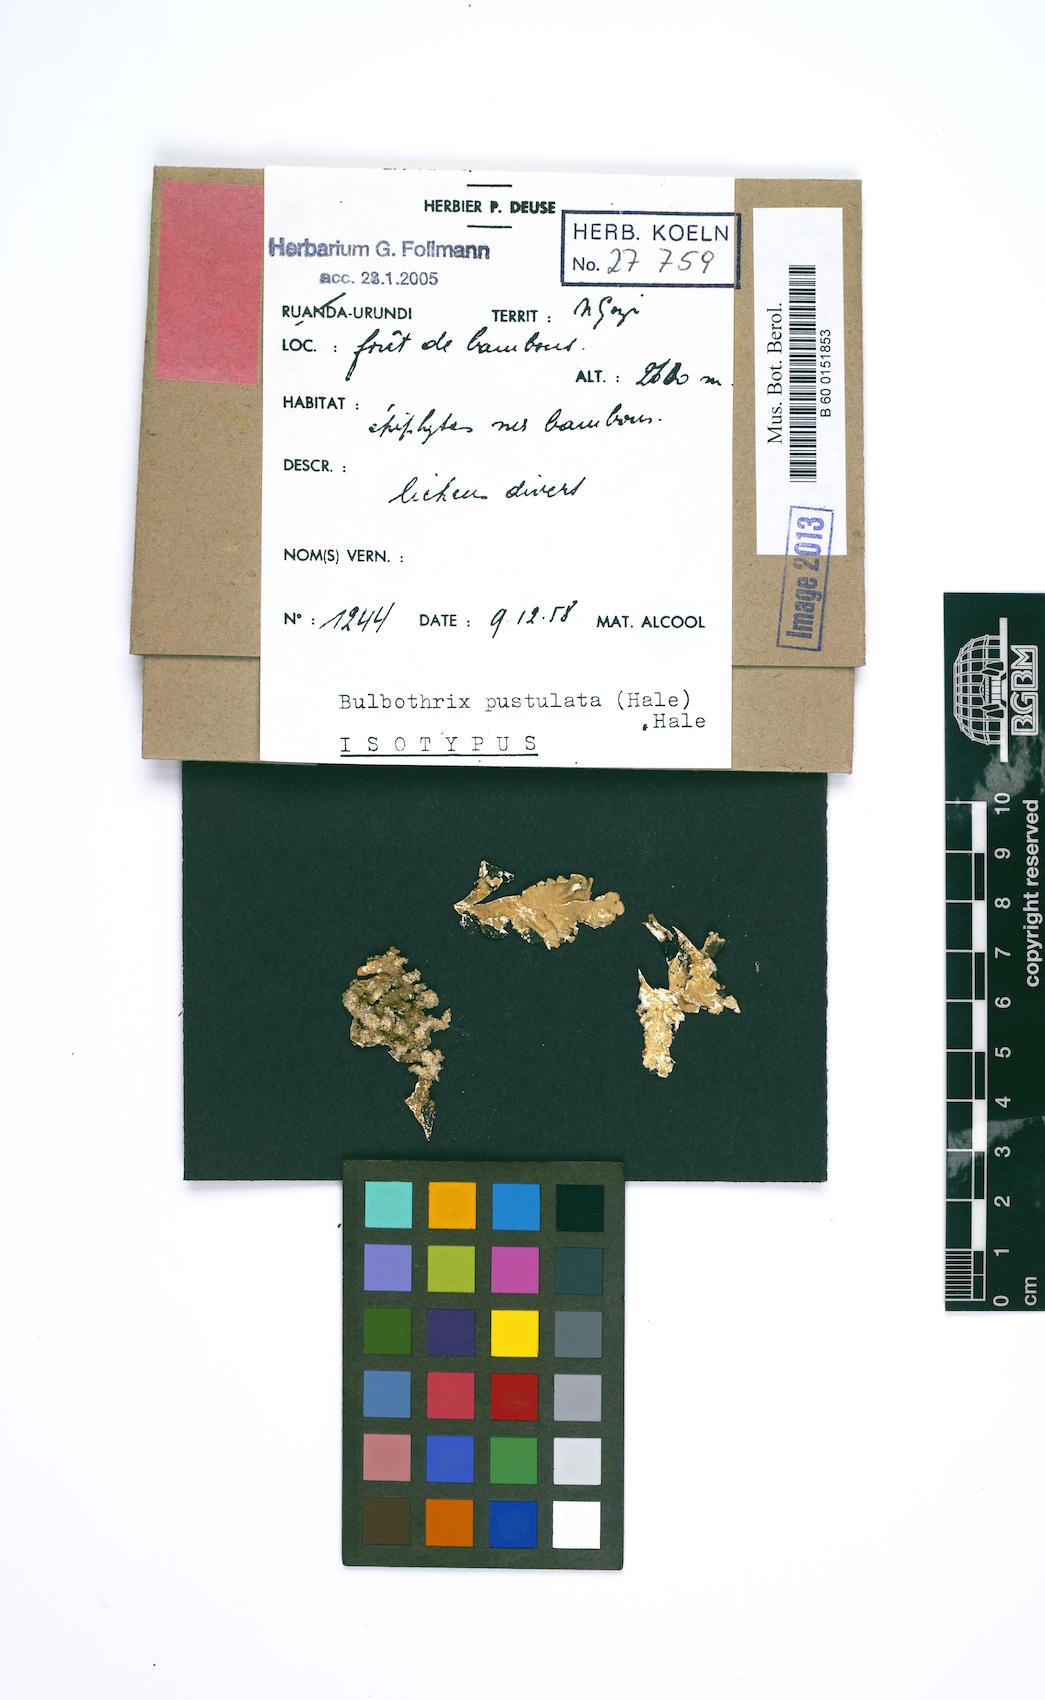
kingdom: Fungi
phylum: Ascomycota
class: Lecanoromycetes
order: Lecanorales
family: Parmeliaceae
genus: Bulbothrix
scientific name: Bulbothrix pustulata
